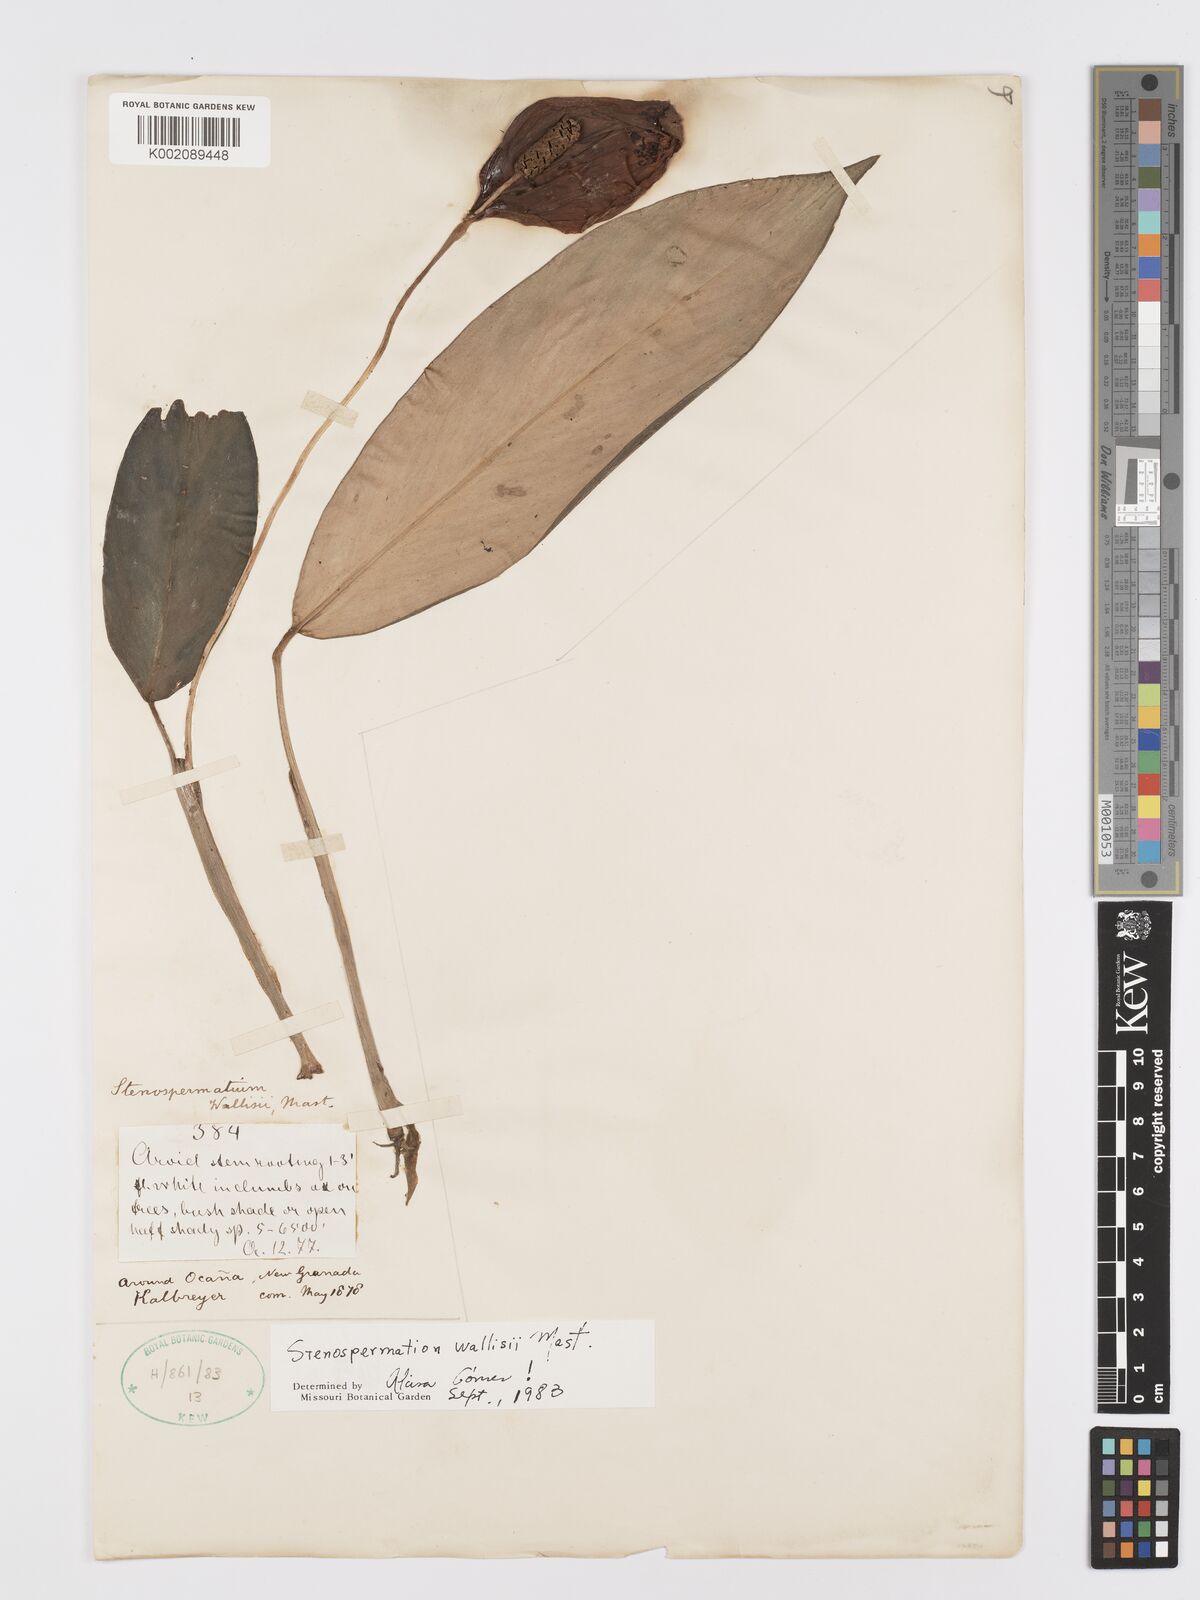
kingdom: Plantae
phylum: Tracheophyta
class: Liliopsida
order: Alismatales
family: Araceae
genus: Stenospermation
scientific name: Stenospermation wallisii
